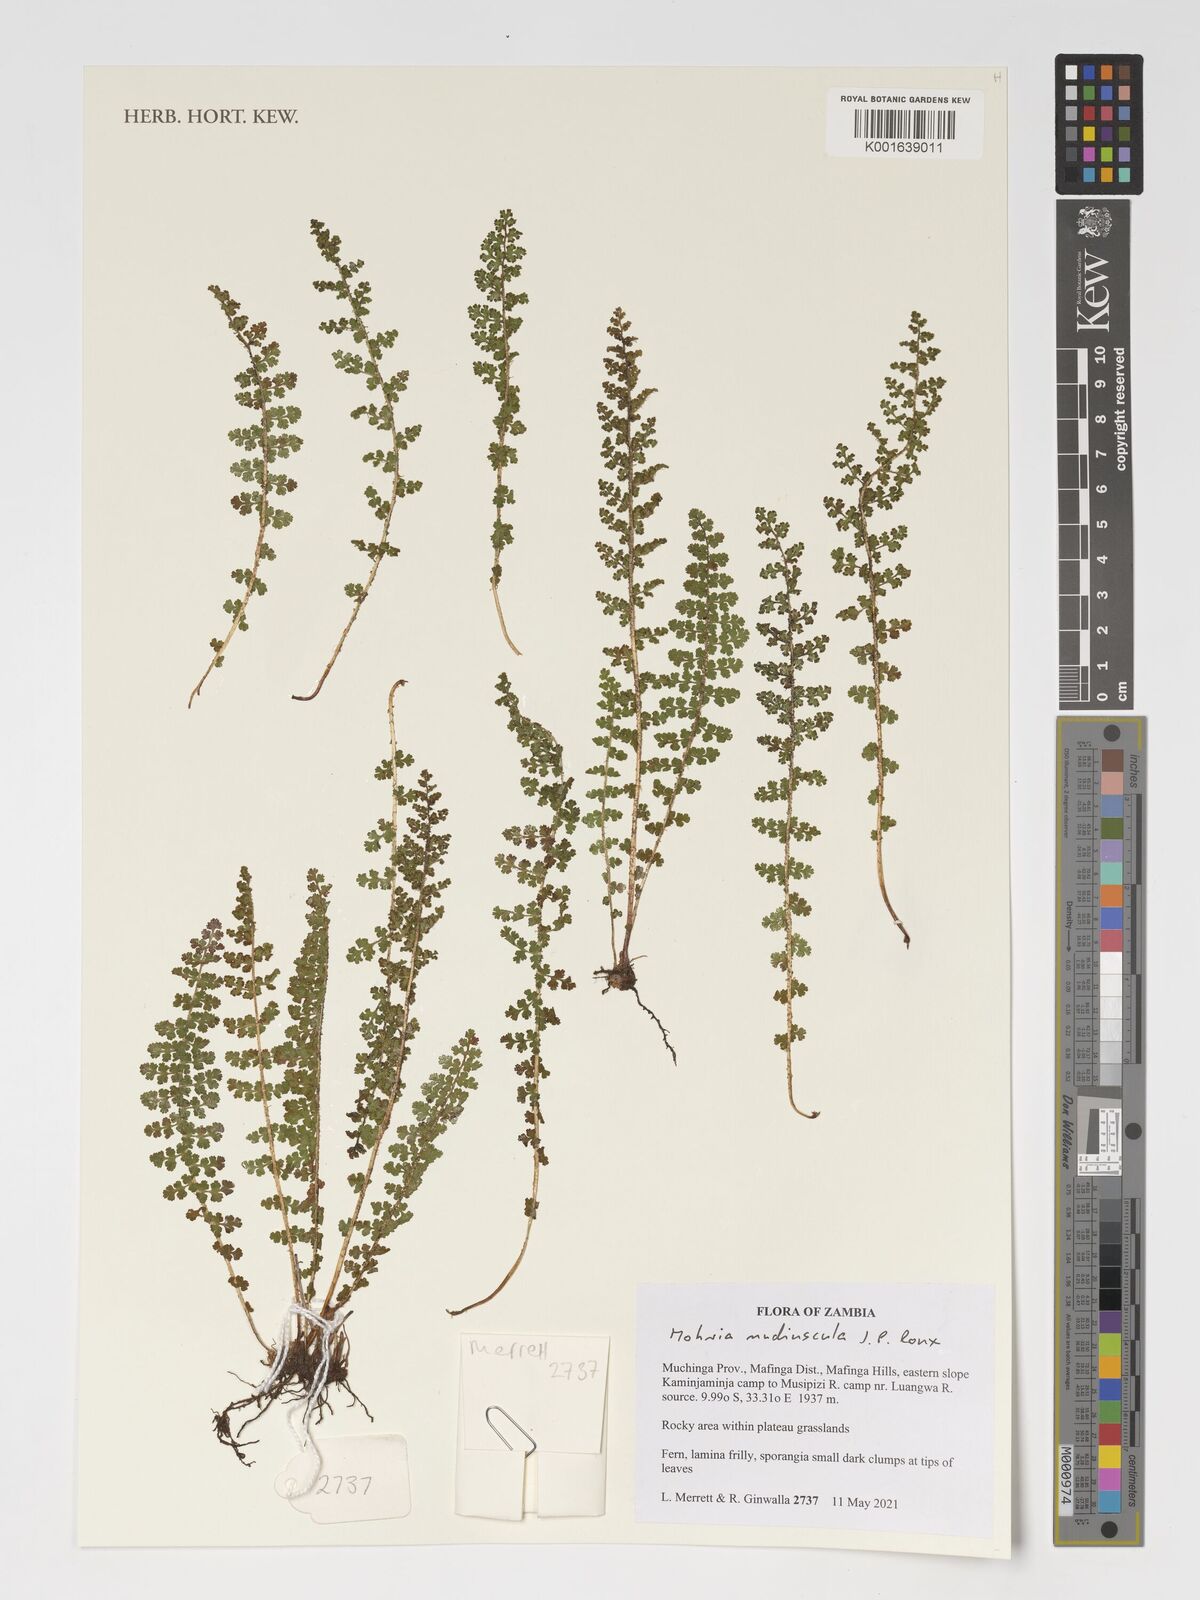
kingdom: Plantae
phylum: Tracheophyta
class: Polypodiopsida
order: Schizaeales
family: Anemiaceae
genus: Anemia
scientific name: Anemia nudiuscula
